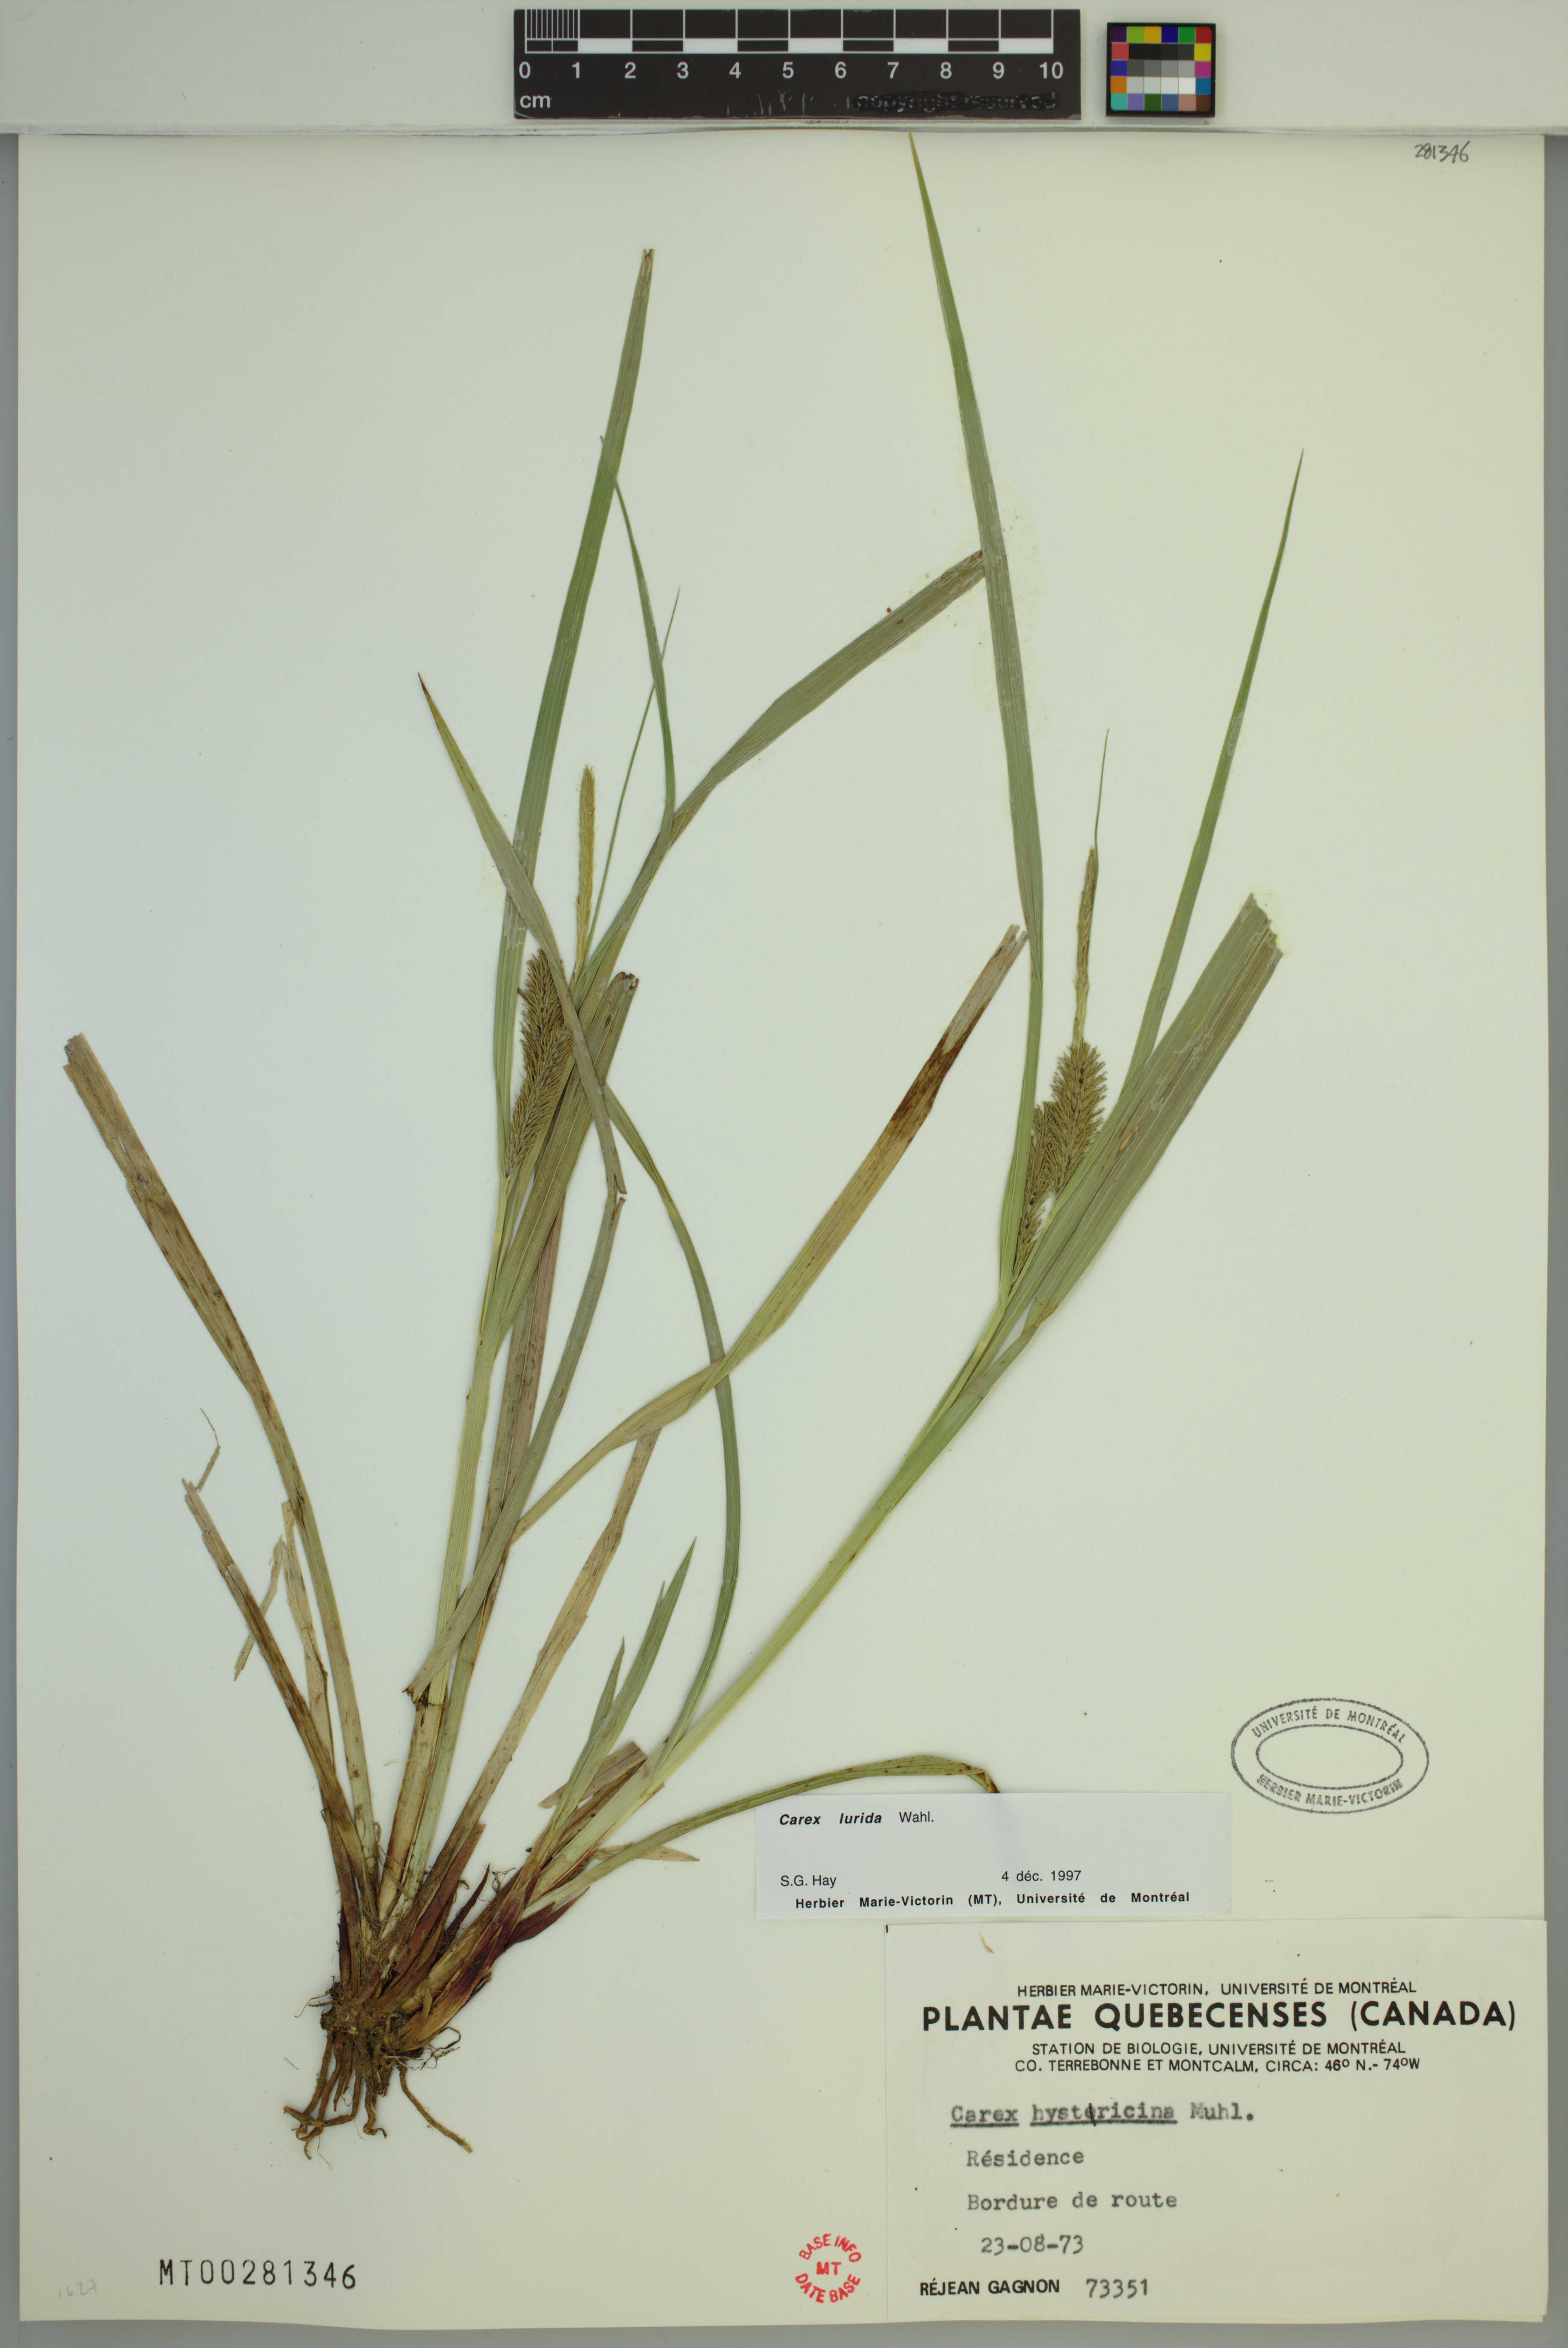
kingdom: Plantae
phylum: Tracheophyta
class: Liliopsida
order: Poales
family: Cyperaceae
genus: Carex
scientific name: Carex lurida
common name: Sallow sedge
